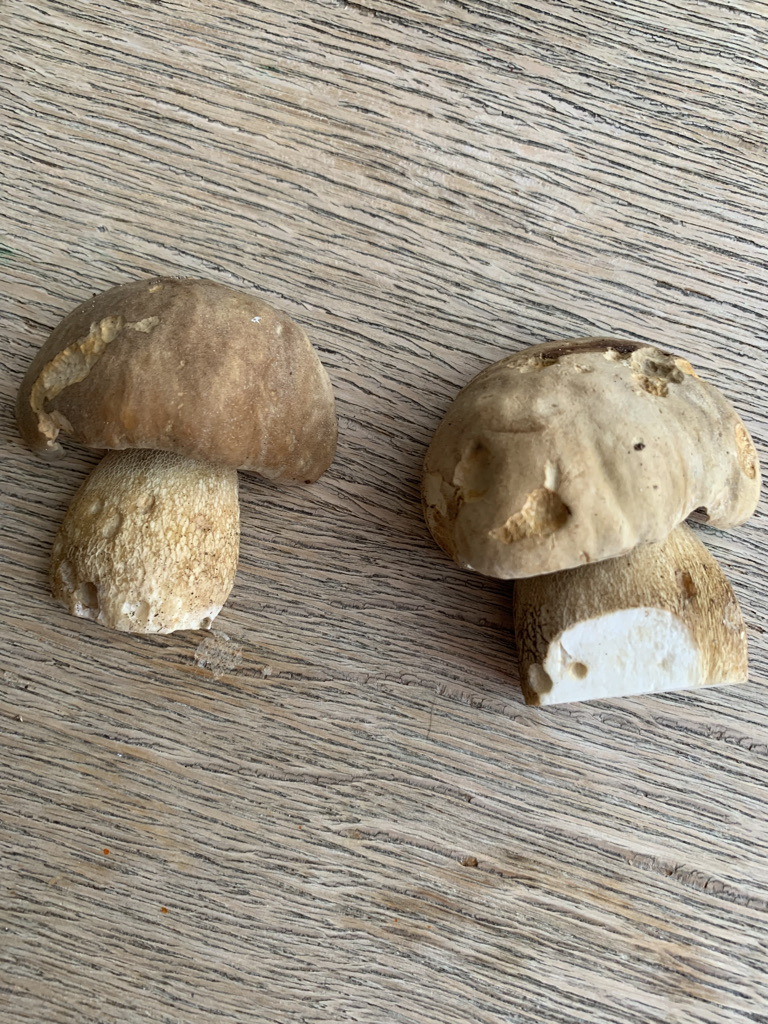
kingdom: Fungi
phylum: Basidiomycota
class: Agaricomycetes
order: Boletales
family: Boletaceae
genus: Boletus
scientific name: Boletus reticulatus
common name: sommer-rørhat
